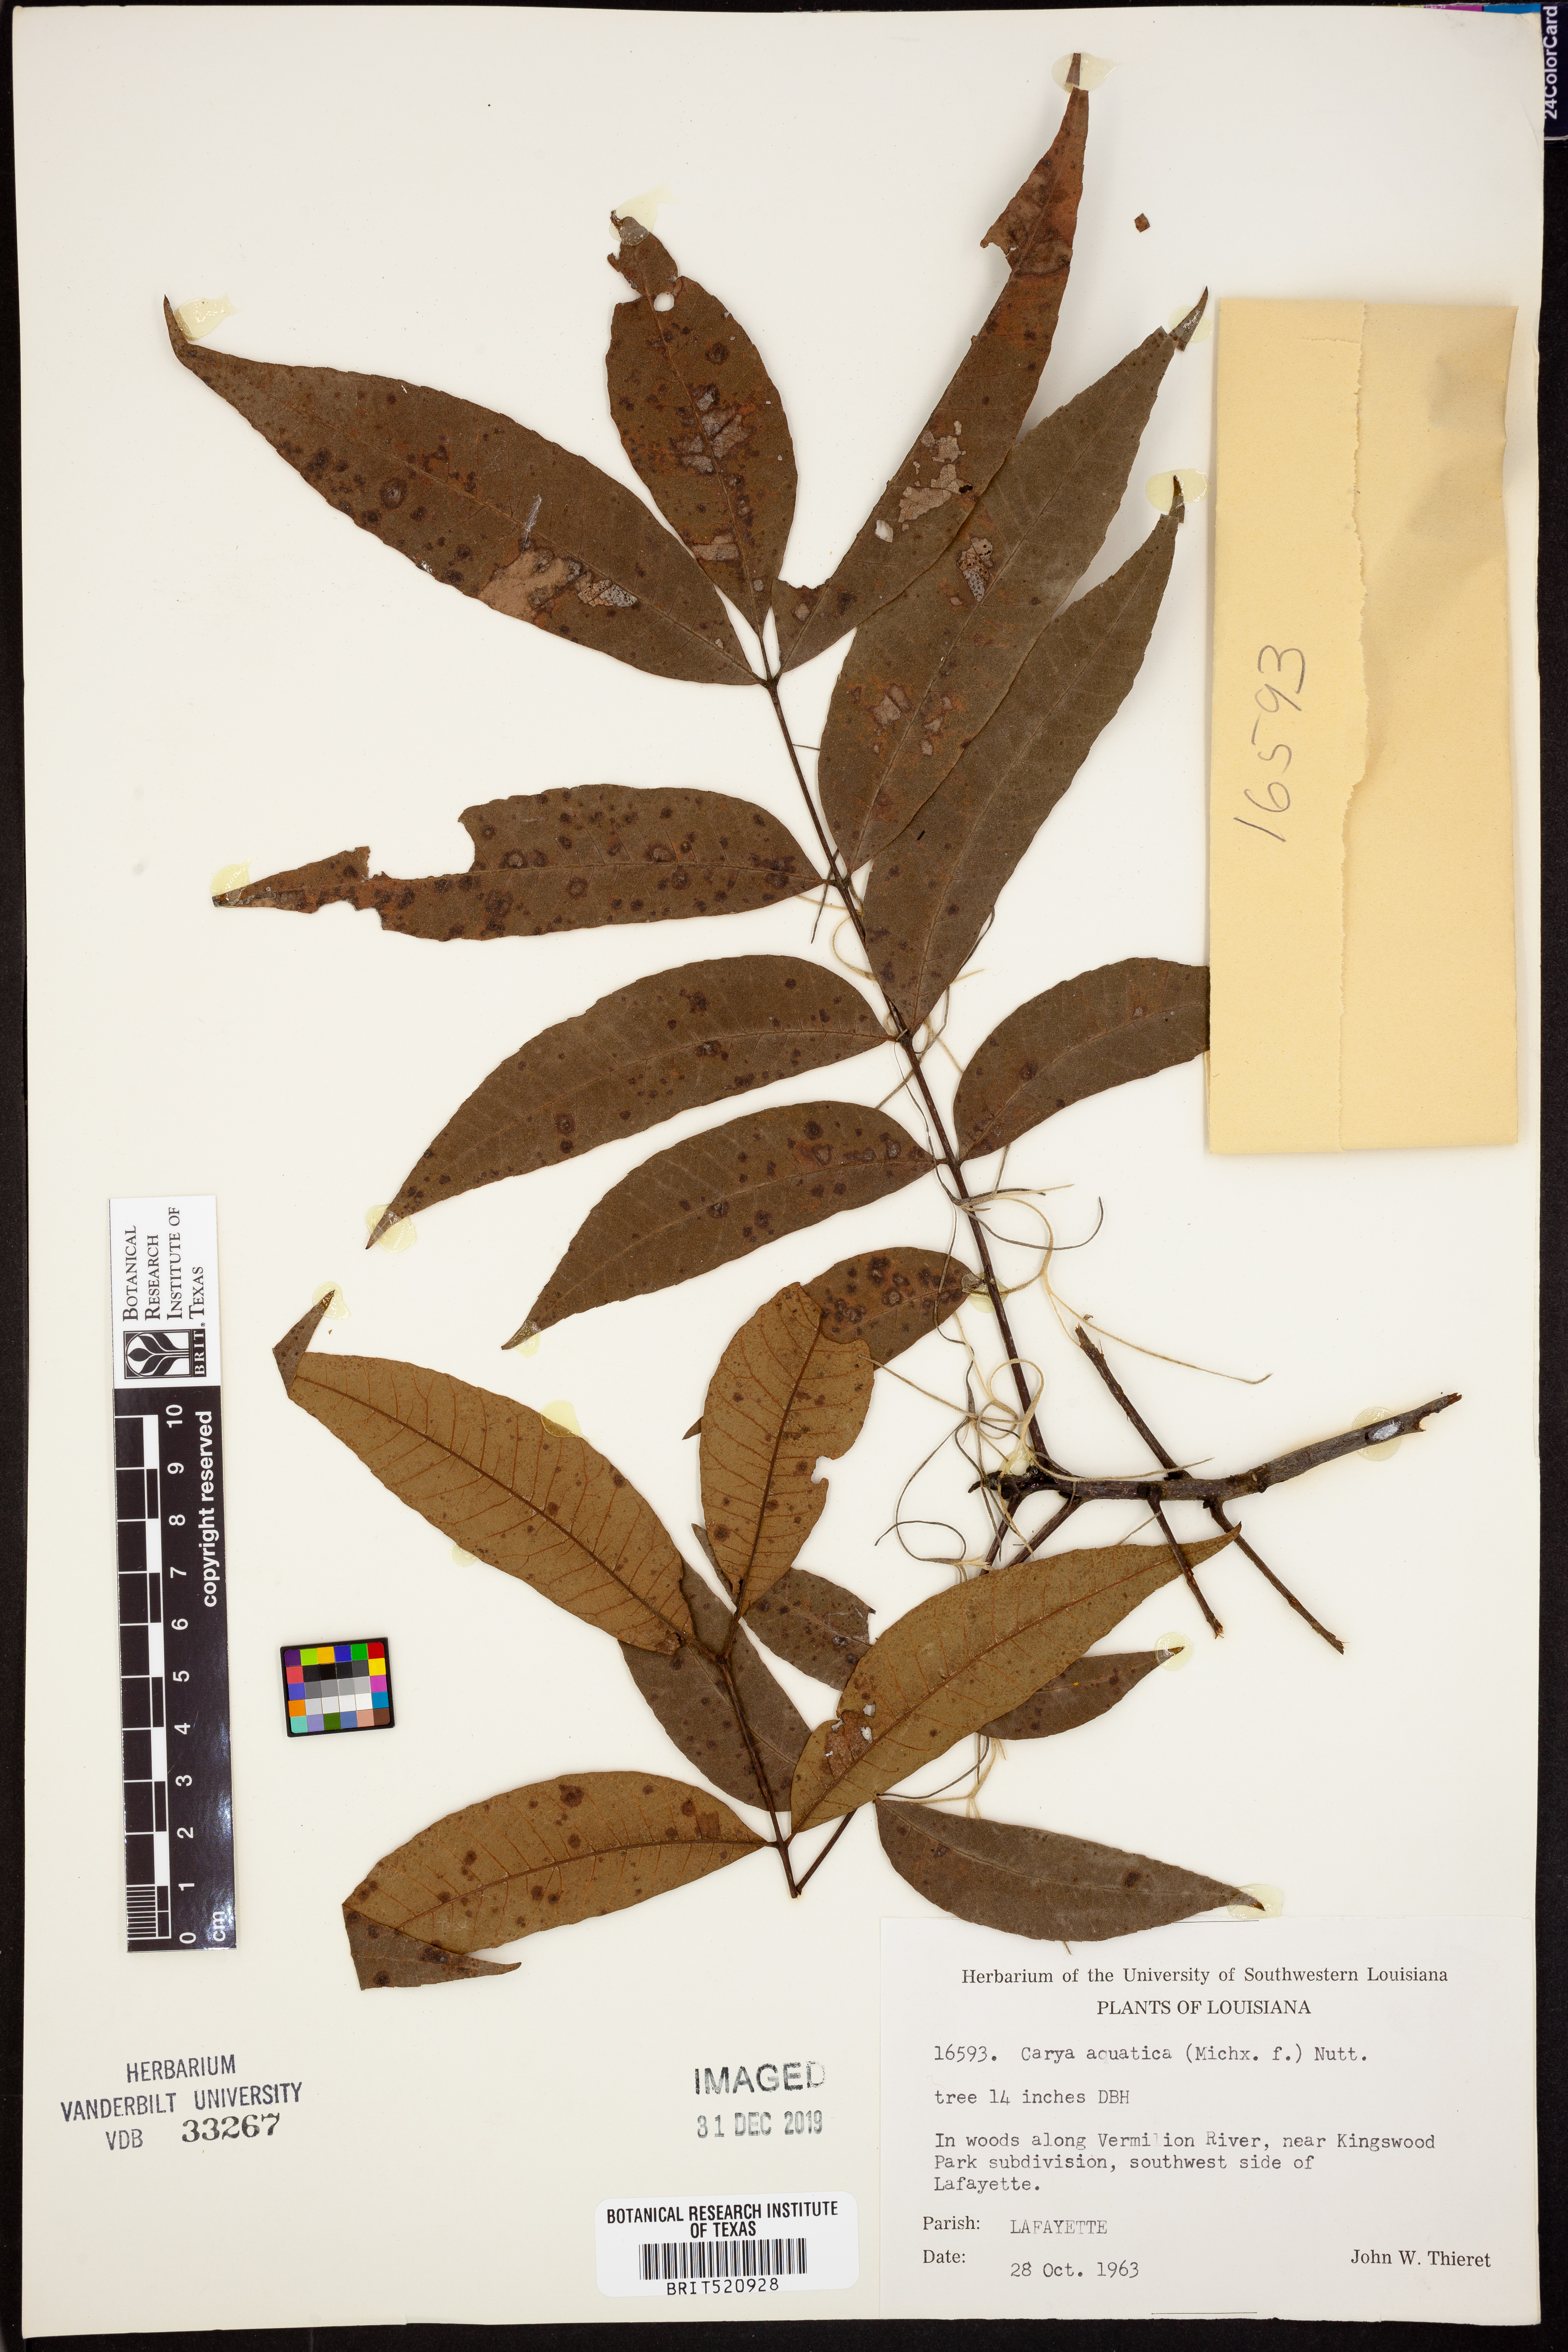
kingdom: Plantae
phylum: Tracheophyta
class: Magnoliopsida
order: Fagales
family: Juglandaceae
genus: Carya
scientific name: Carya aquatica
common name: Water hickory
